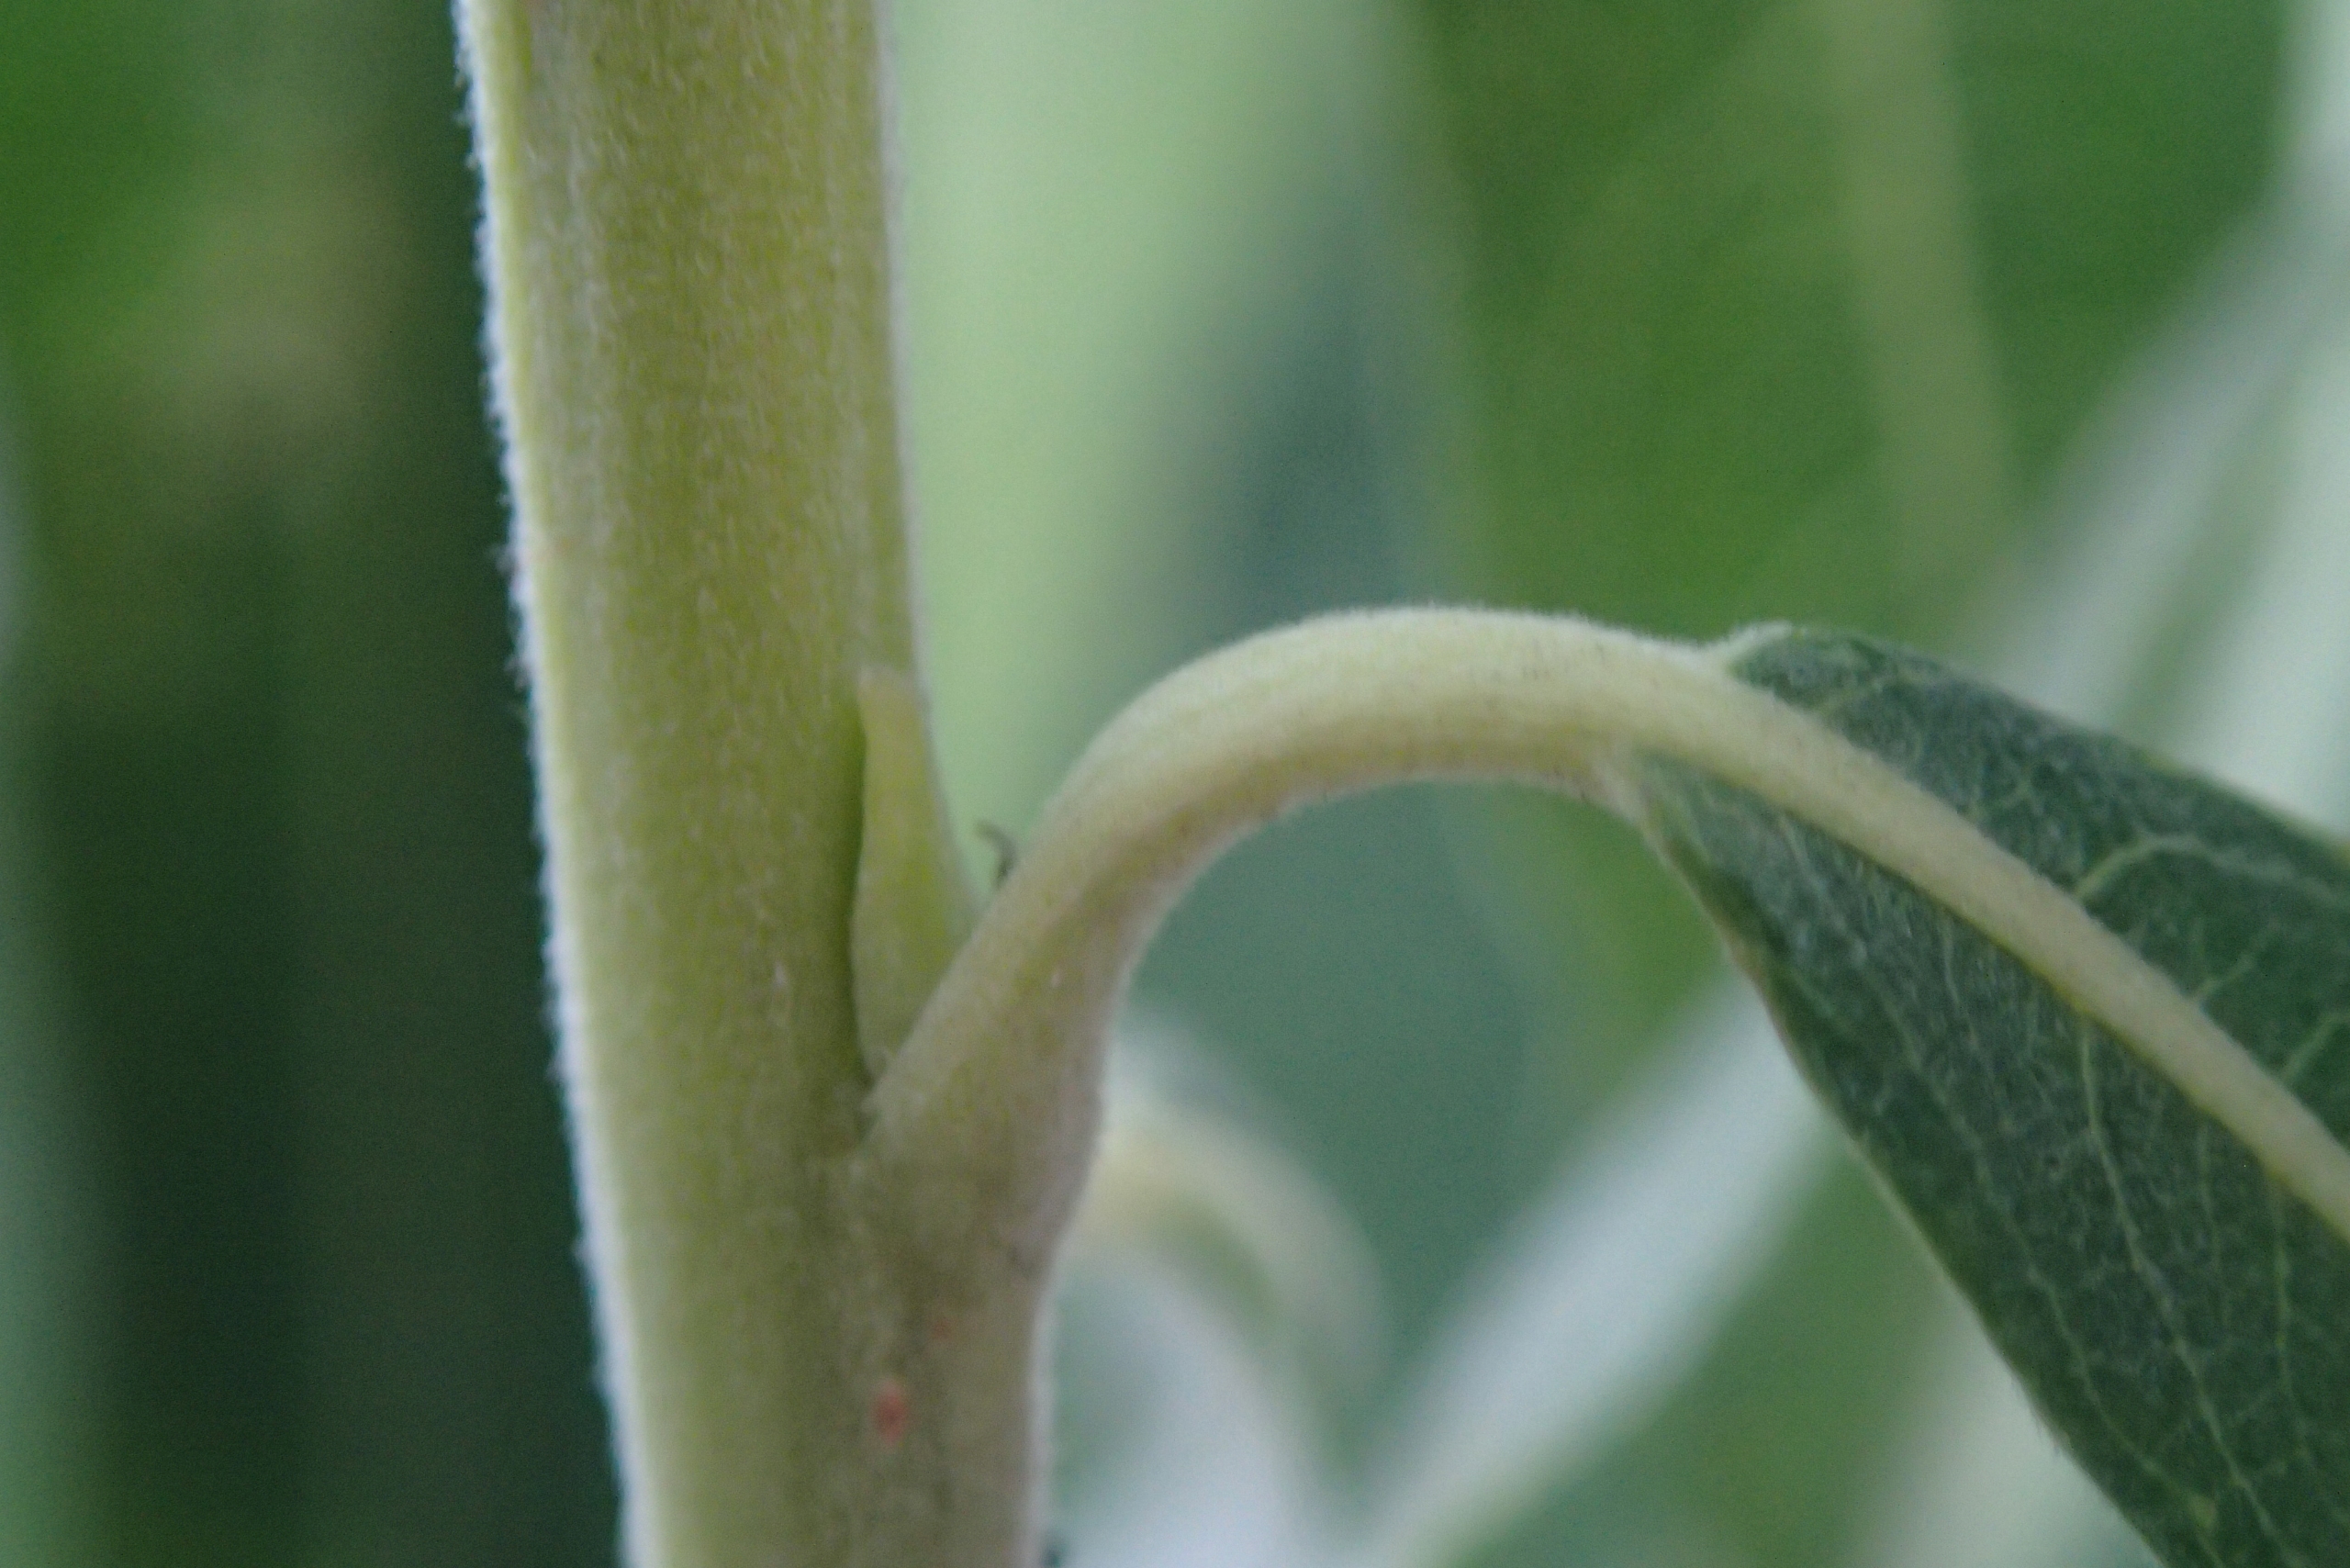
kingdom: Plantae
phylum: Tracheophyta
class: Magnoliopsida
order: Malpighiales
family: Salicaceae
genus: Salix
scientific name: Salix viminalis
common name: Bånd-pil
